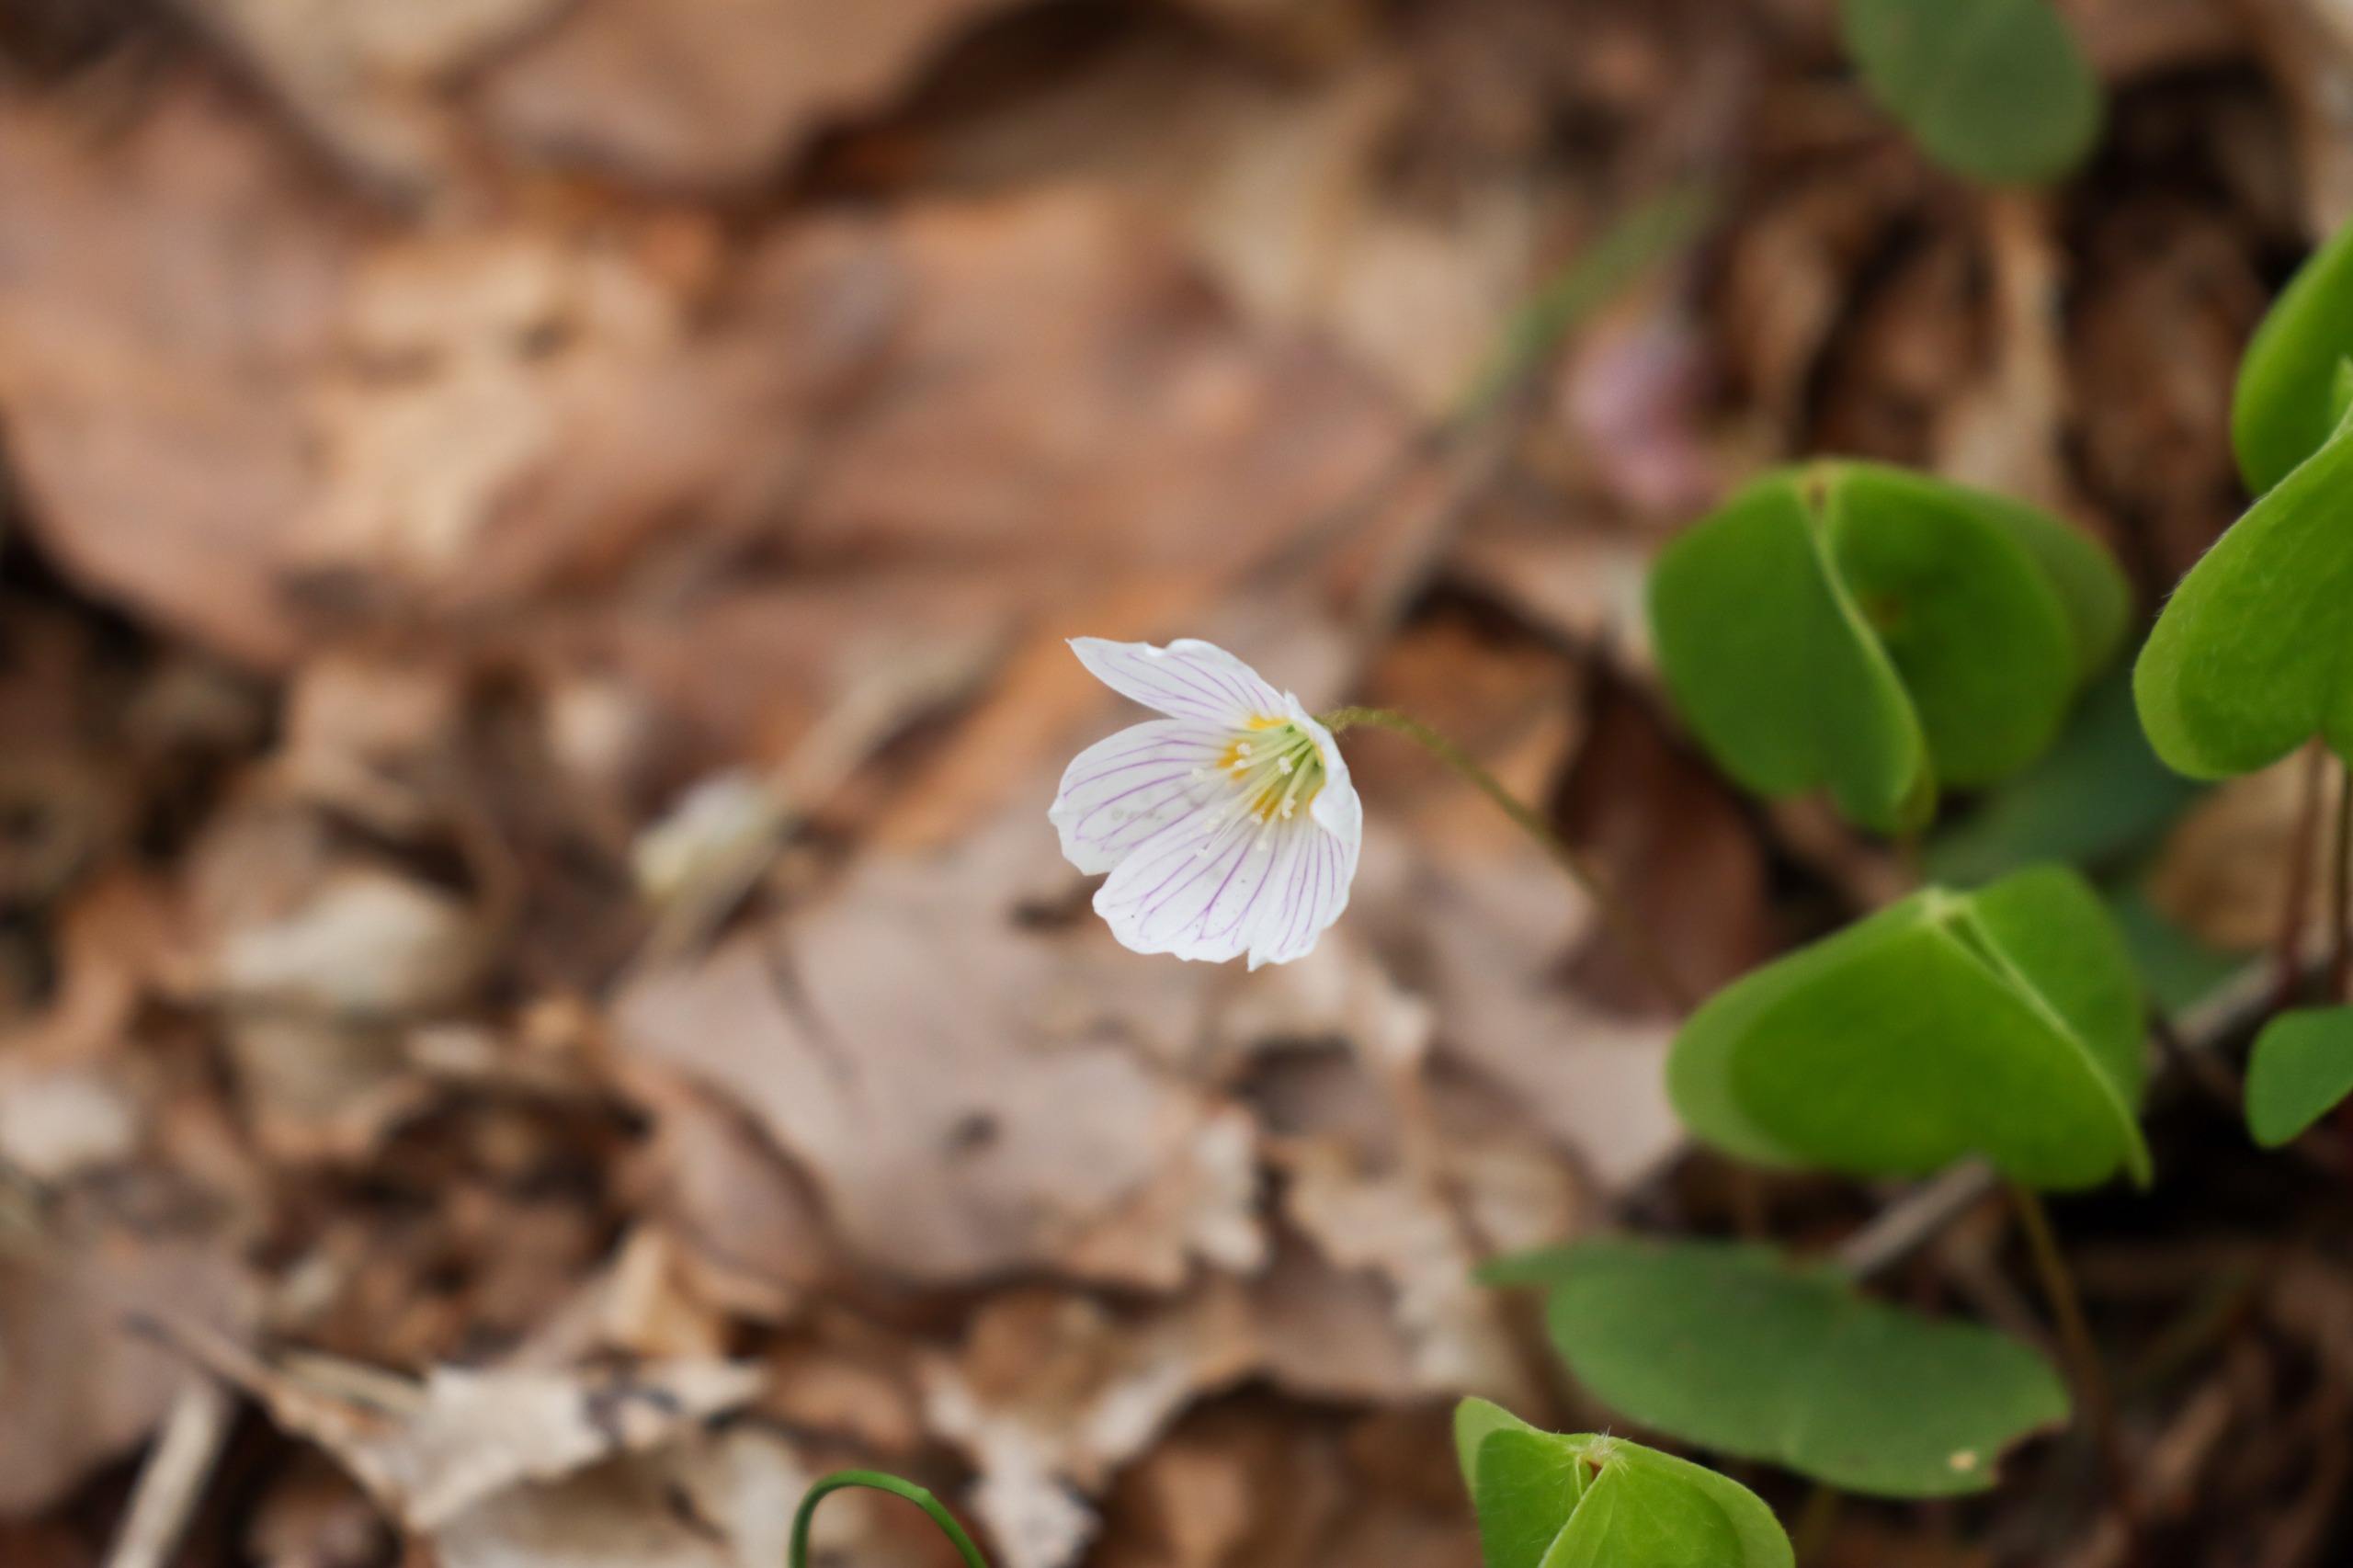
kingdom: Plantae
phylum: Tracheophyta
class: Magnoliopsida
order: Oxalidales
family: Oxalidaceae
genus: Oxalis
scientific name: Oxalis acetosella
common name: Skovsyre
